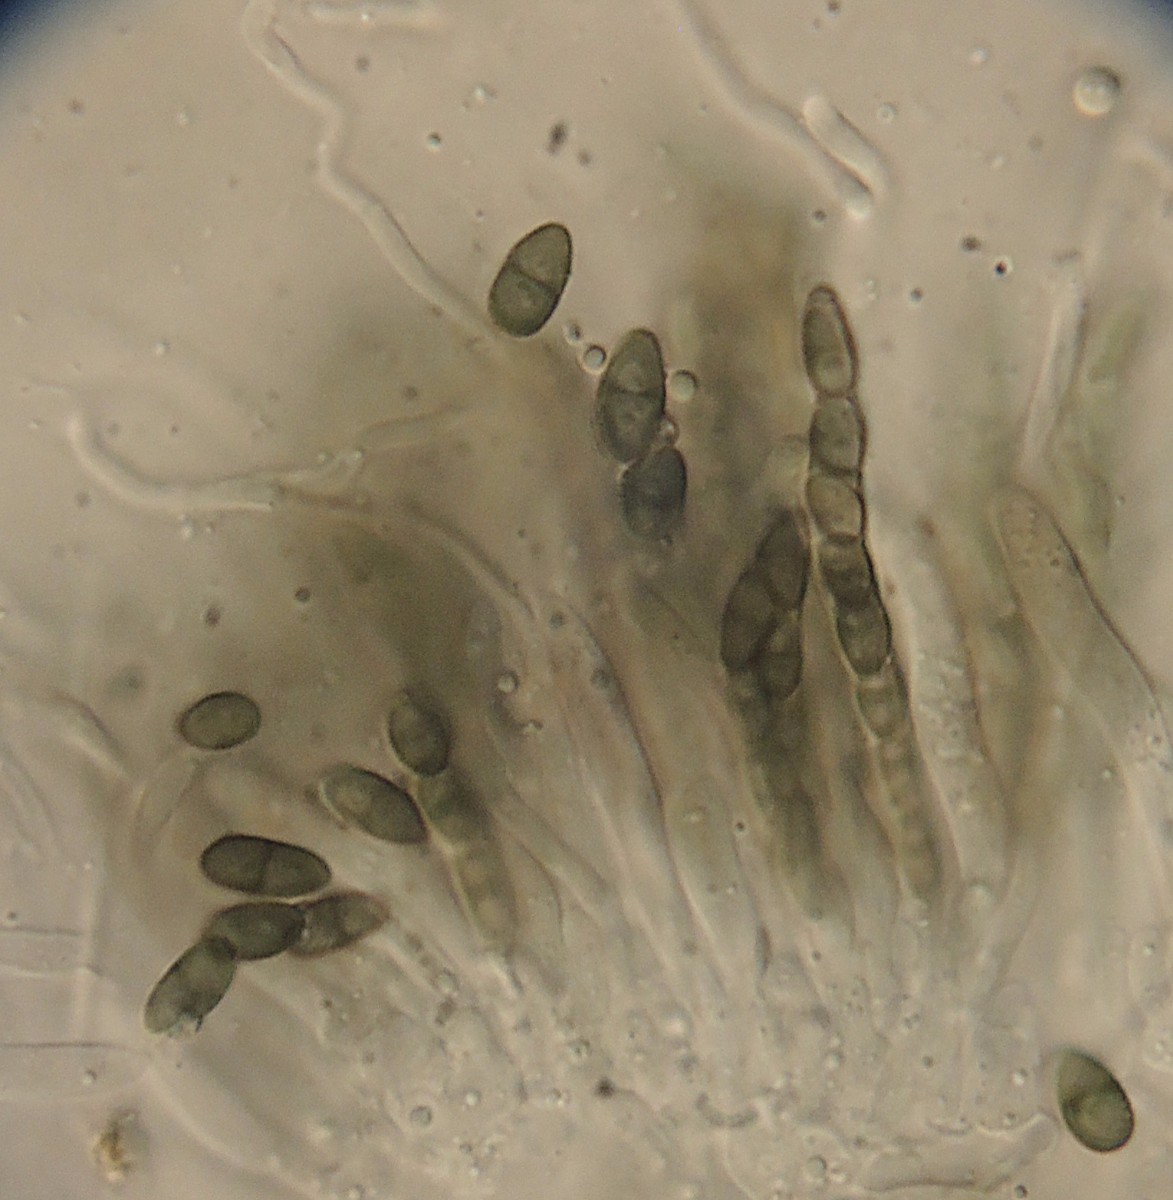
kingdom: Fungi
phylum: Ascomycota
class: Eurotiomycetes
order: Mycocaliciales
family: Mycocaliciaceae
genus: Mycocalicium
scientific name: Mycocalicium
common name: nålesvamp
